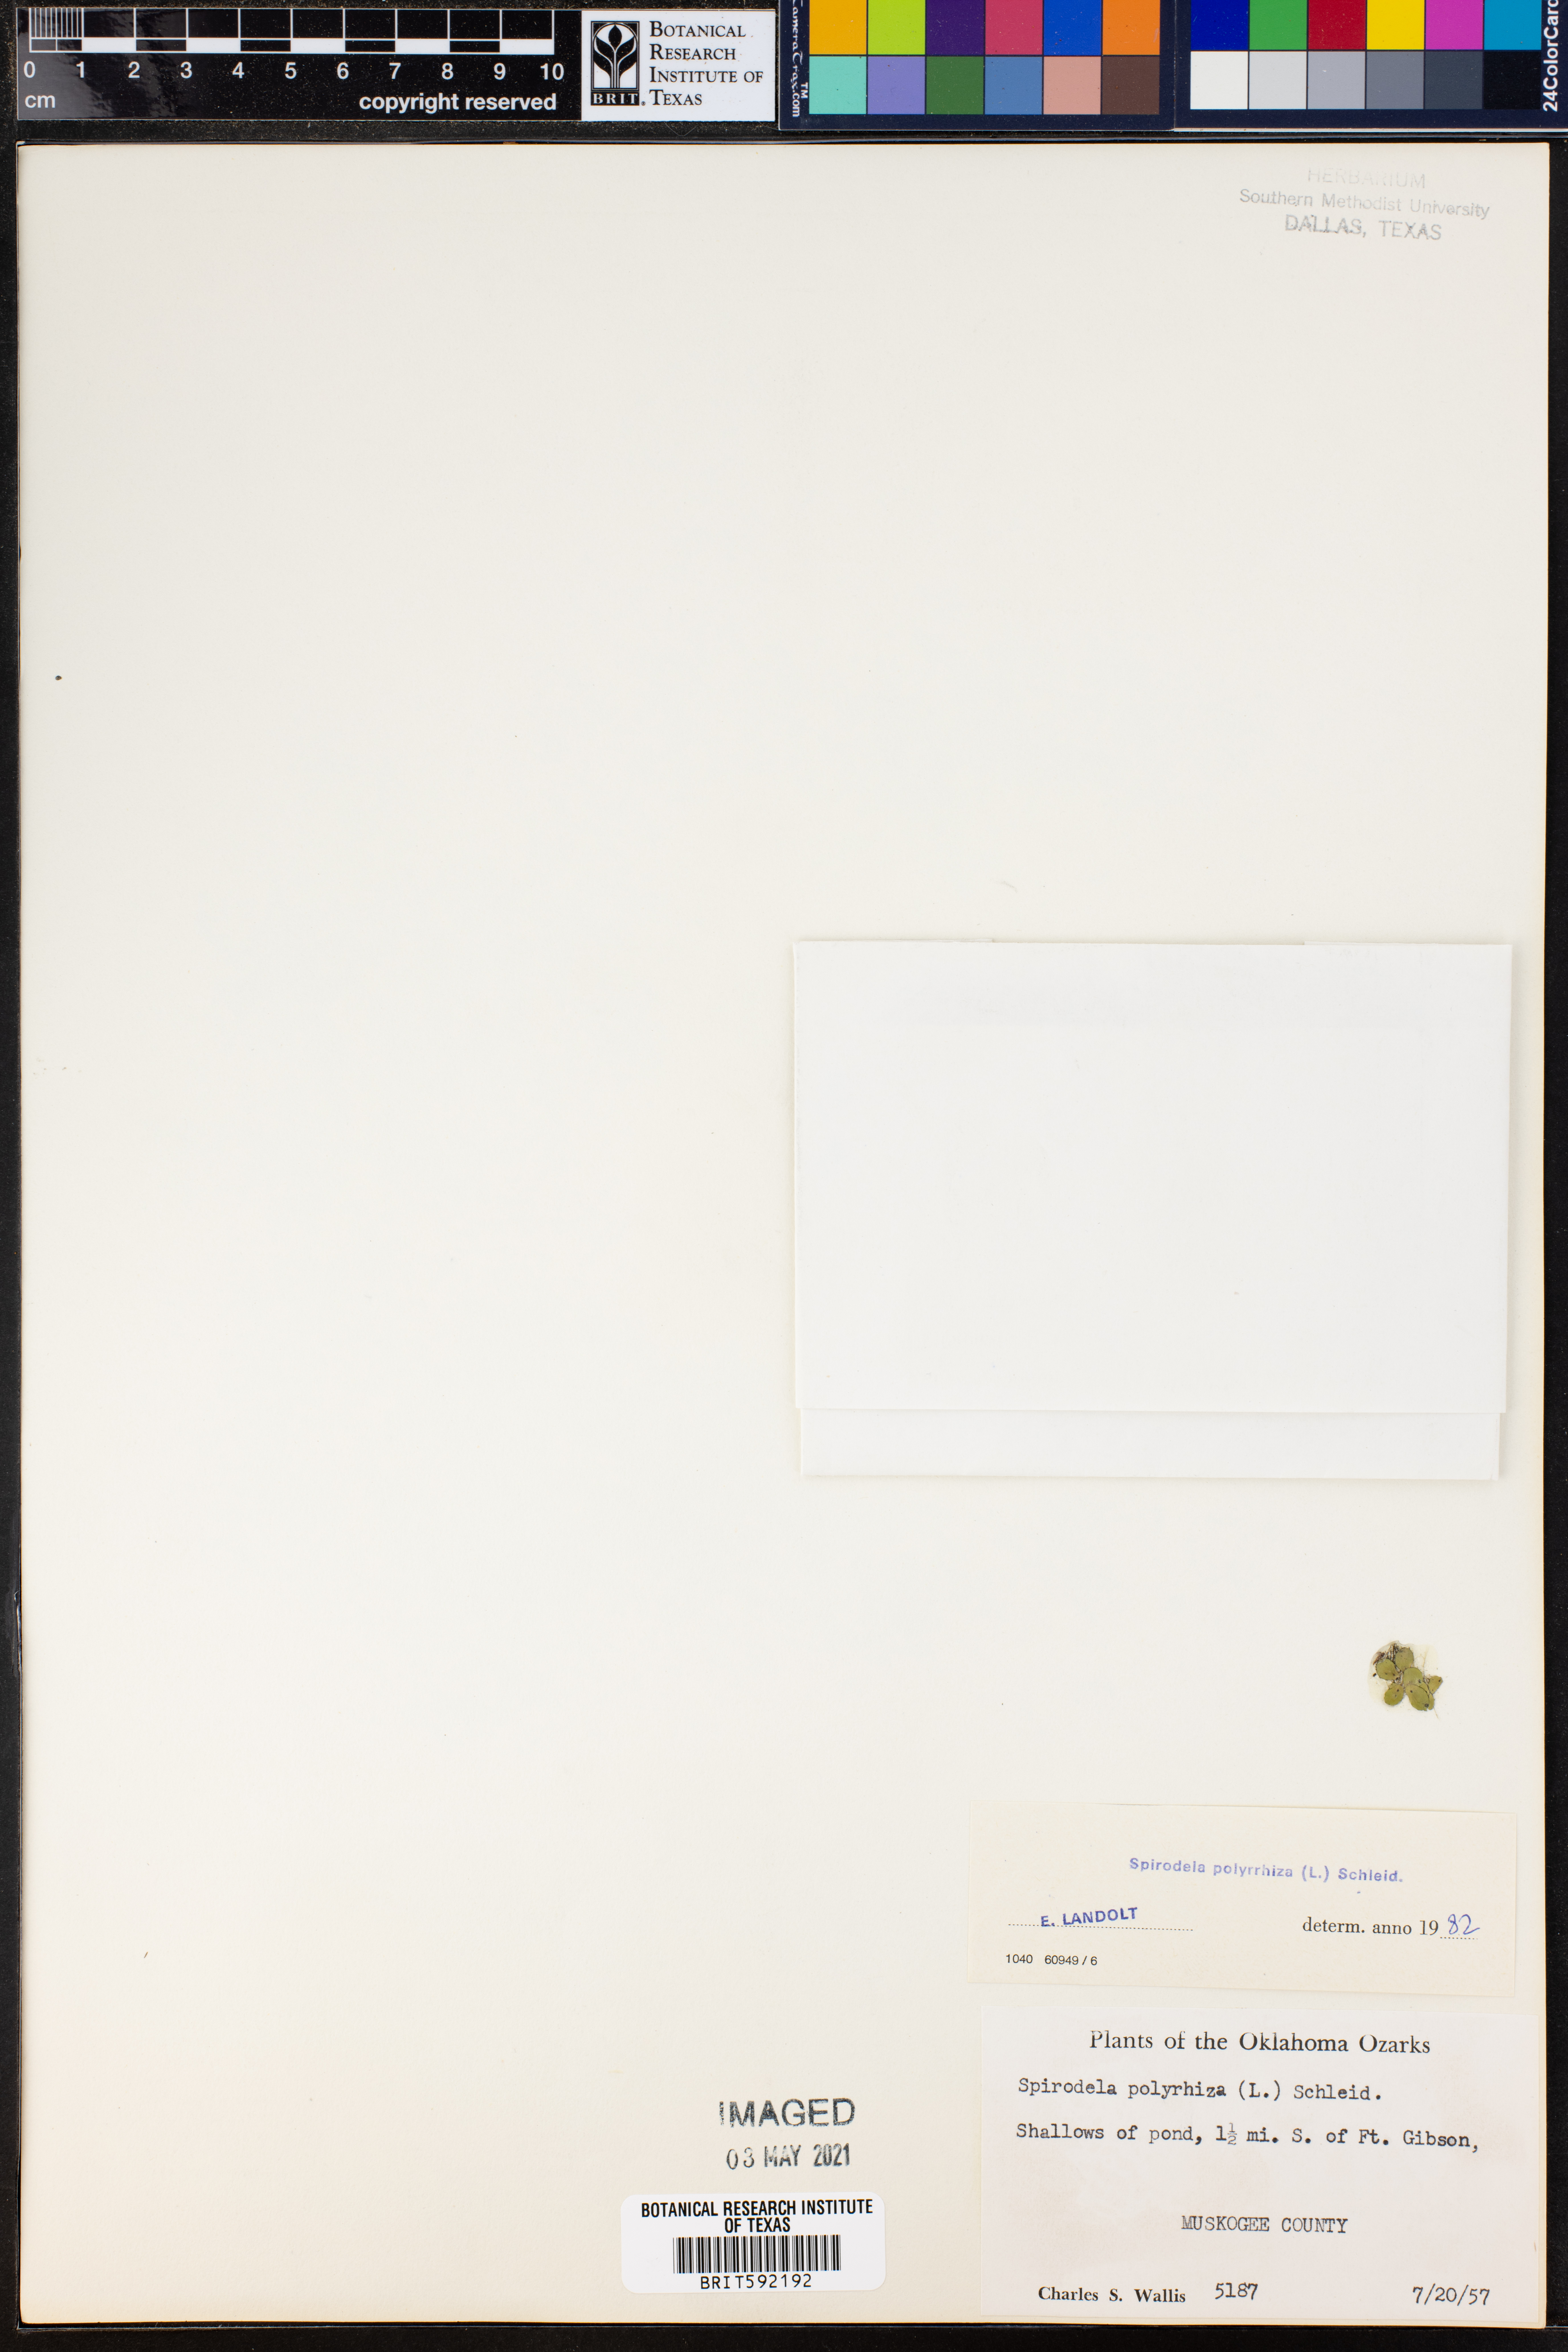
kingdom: Plantae
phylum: Tracheophyta
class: Liliopsida
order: Alismatales
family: Araceae
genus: Spirodela
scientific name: Spirodela polyrhiza
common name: Great duckweed
